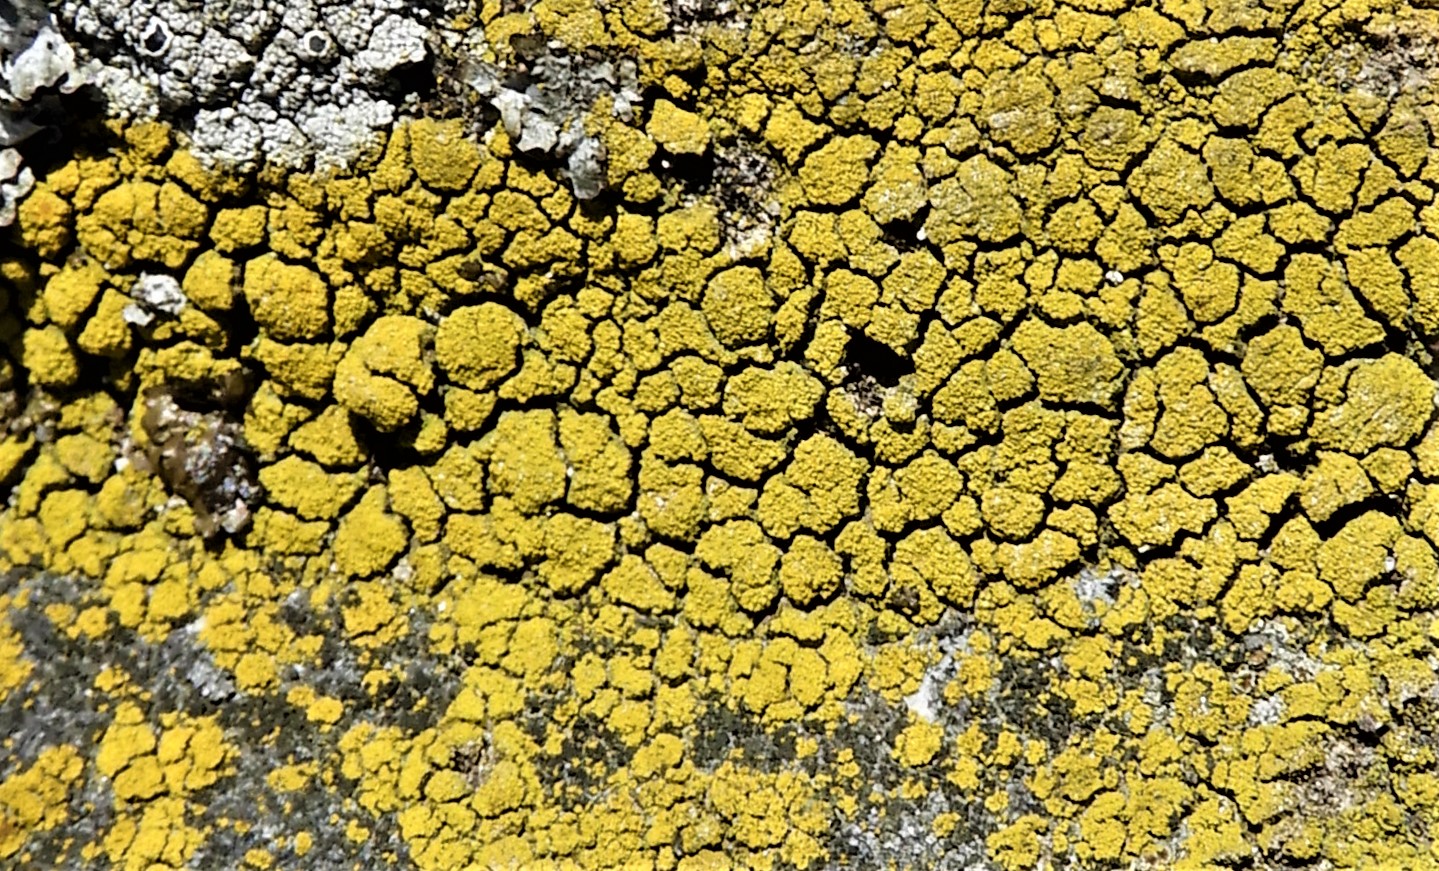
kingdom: Fungi
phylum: Ascomycota
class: Candelariomycetes
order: Candelariales
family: Candelariaceae
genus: Candelariella
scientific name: Candelariella vitellina
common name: almindelig æggeblommelav
